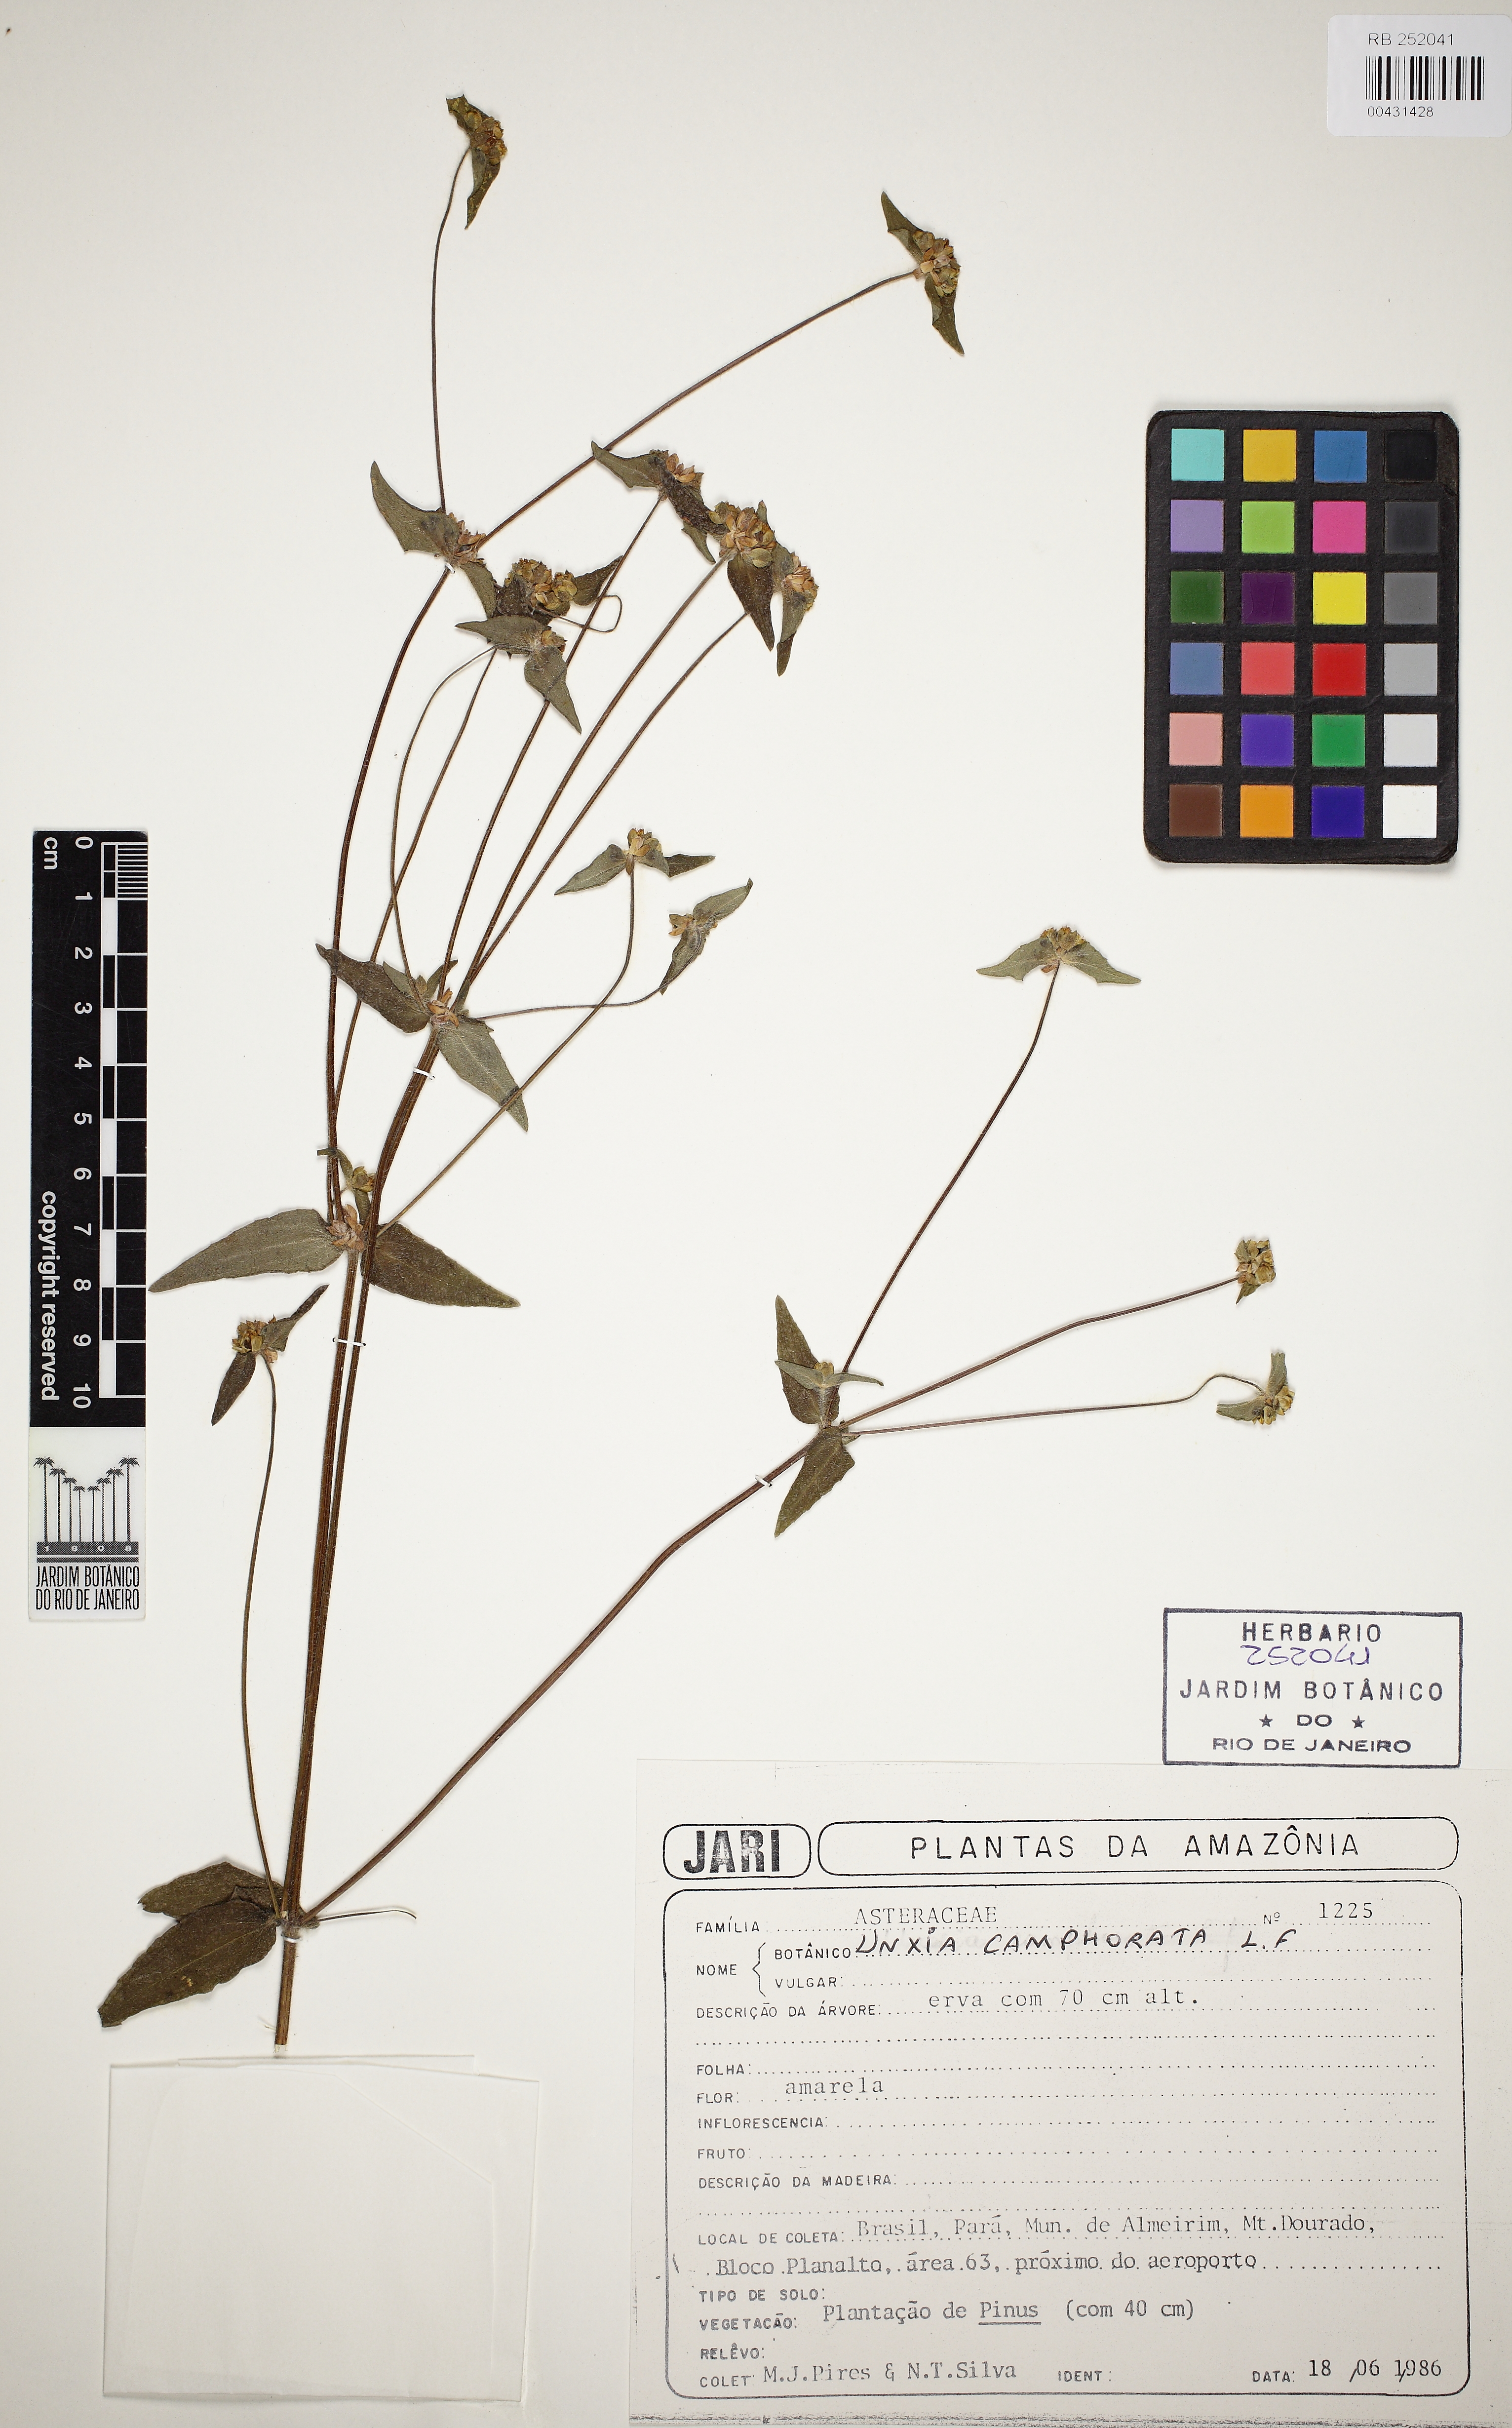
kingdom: Plantae
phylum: Tracheophyta
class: Magnoliopsida
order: Asterales
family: Asteraceae
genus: Unxia
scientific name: Unxia camphorata
